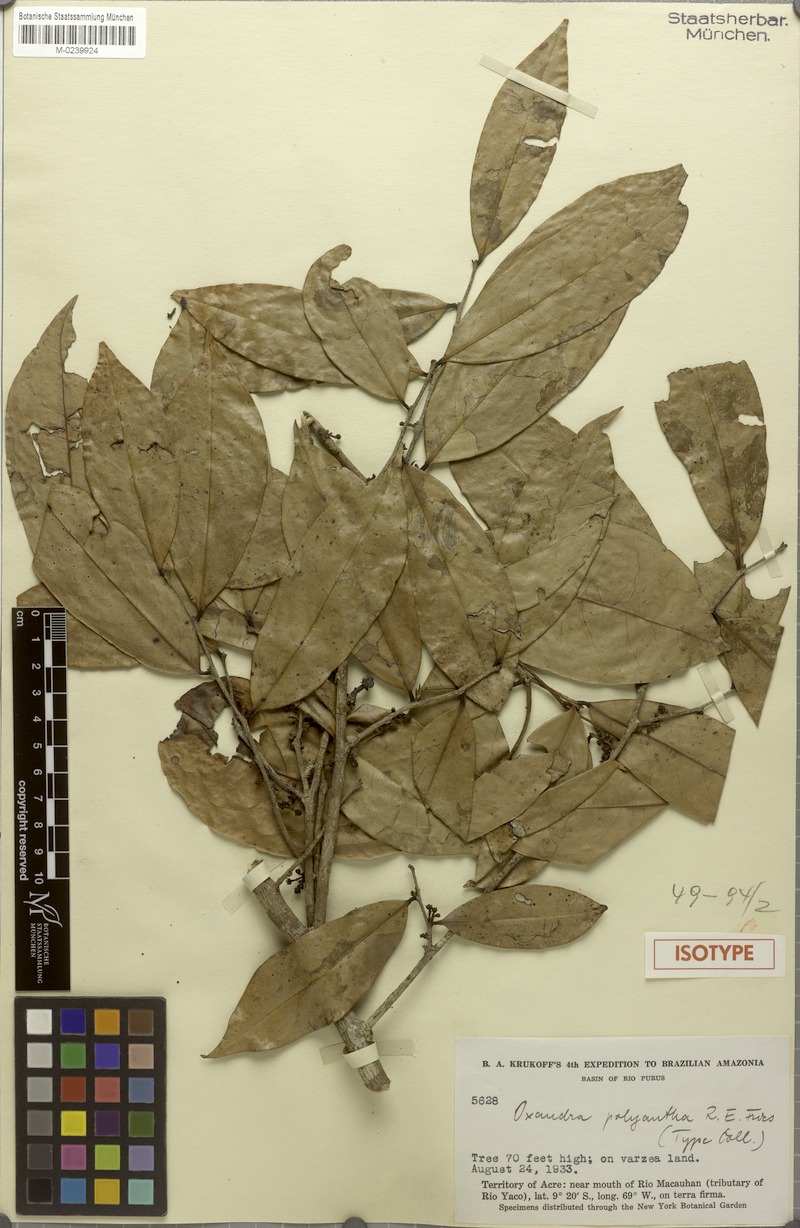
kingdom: Plantae
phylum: Tracheophyta
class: Magnoliopsida
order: Magnoliales
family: Annonaceae
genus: Oxandra
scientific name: Oxandra polyantha
